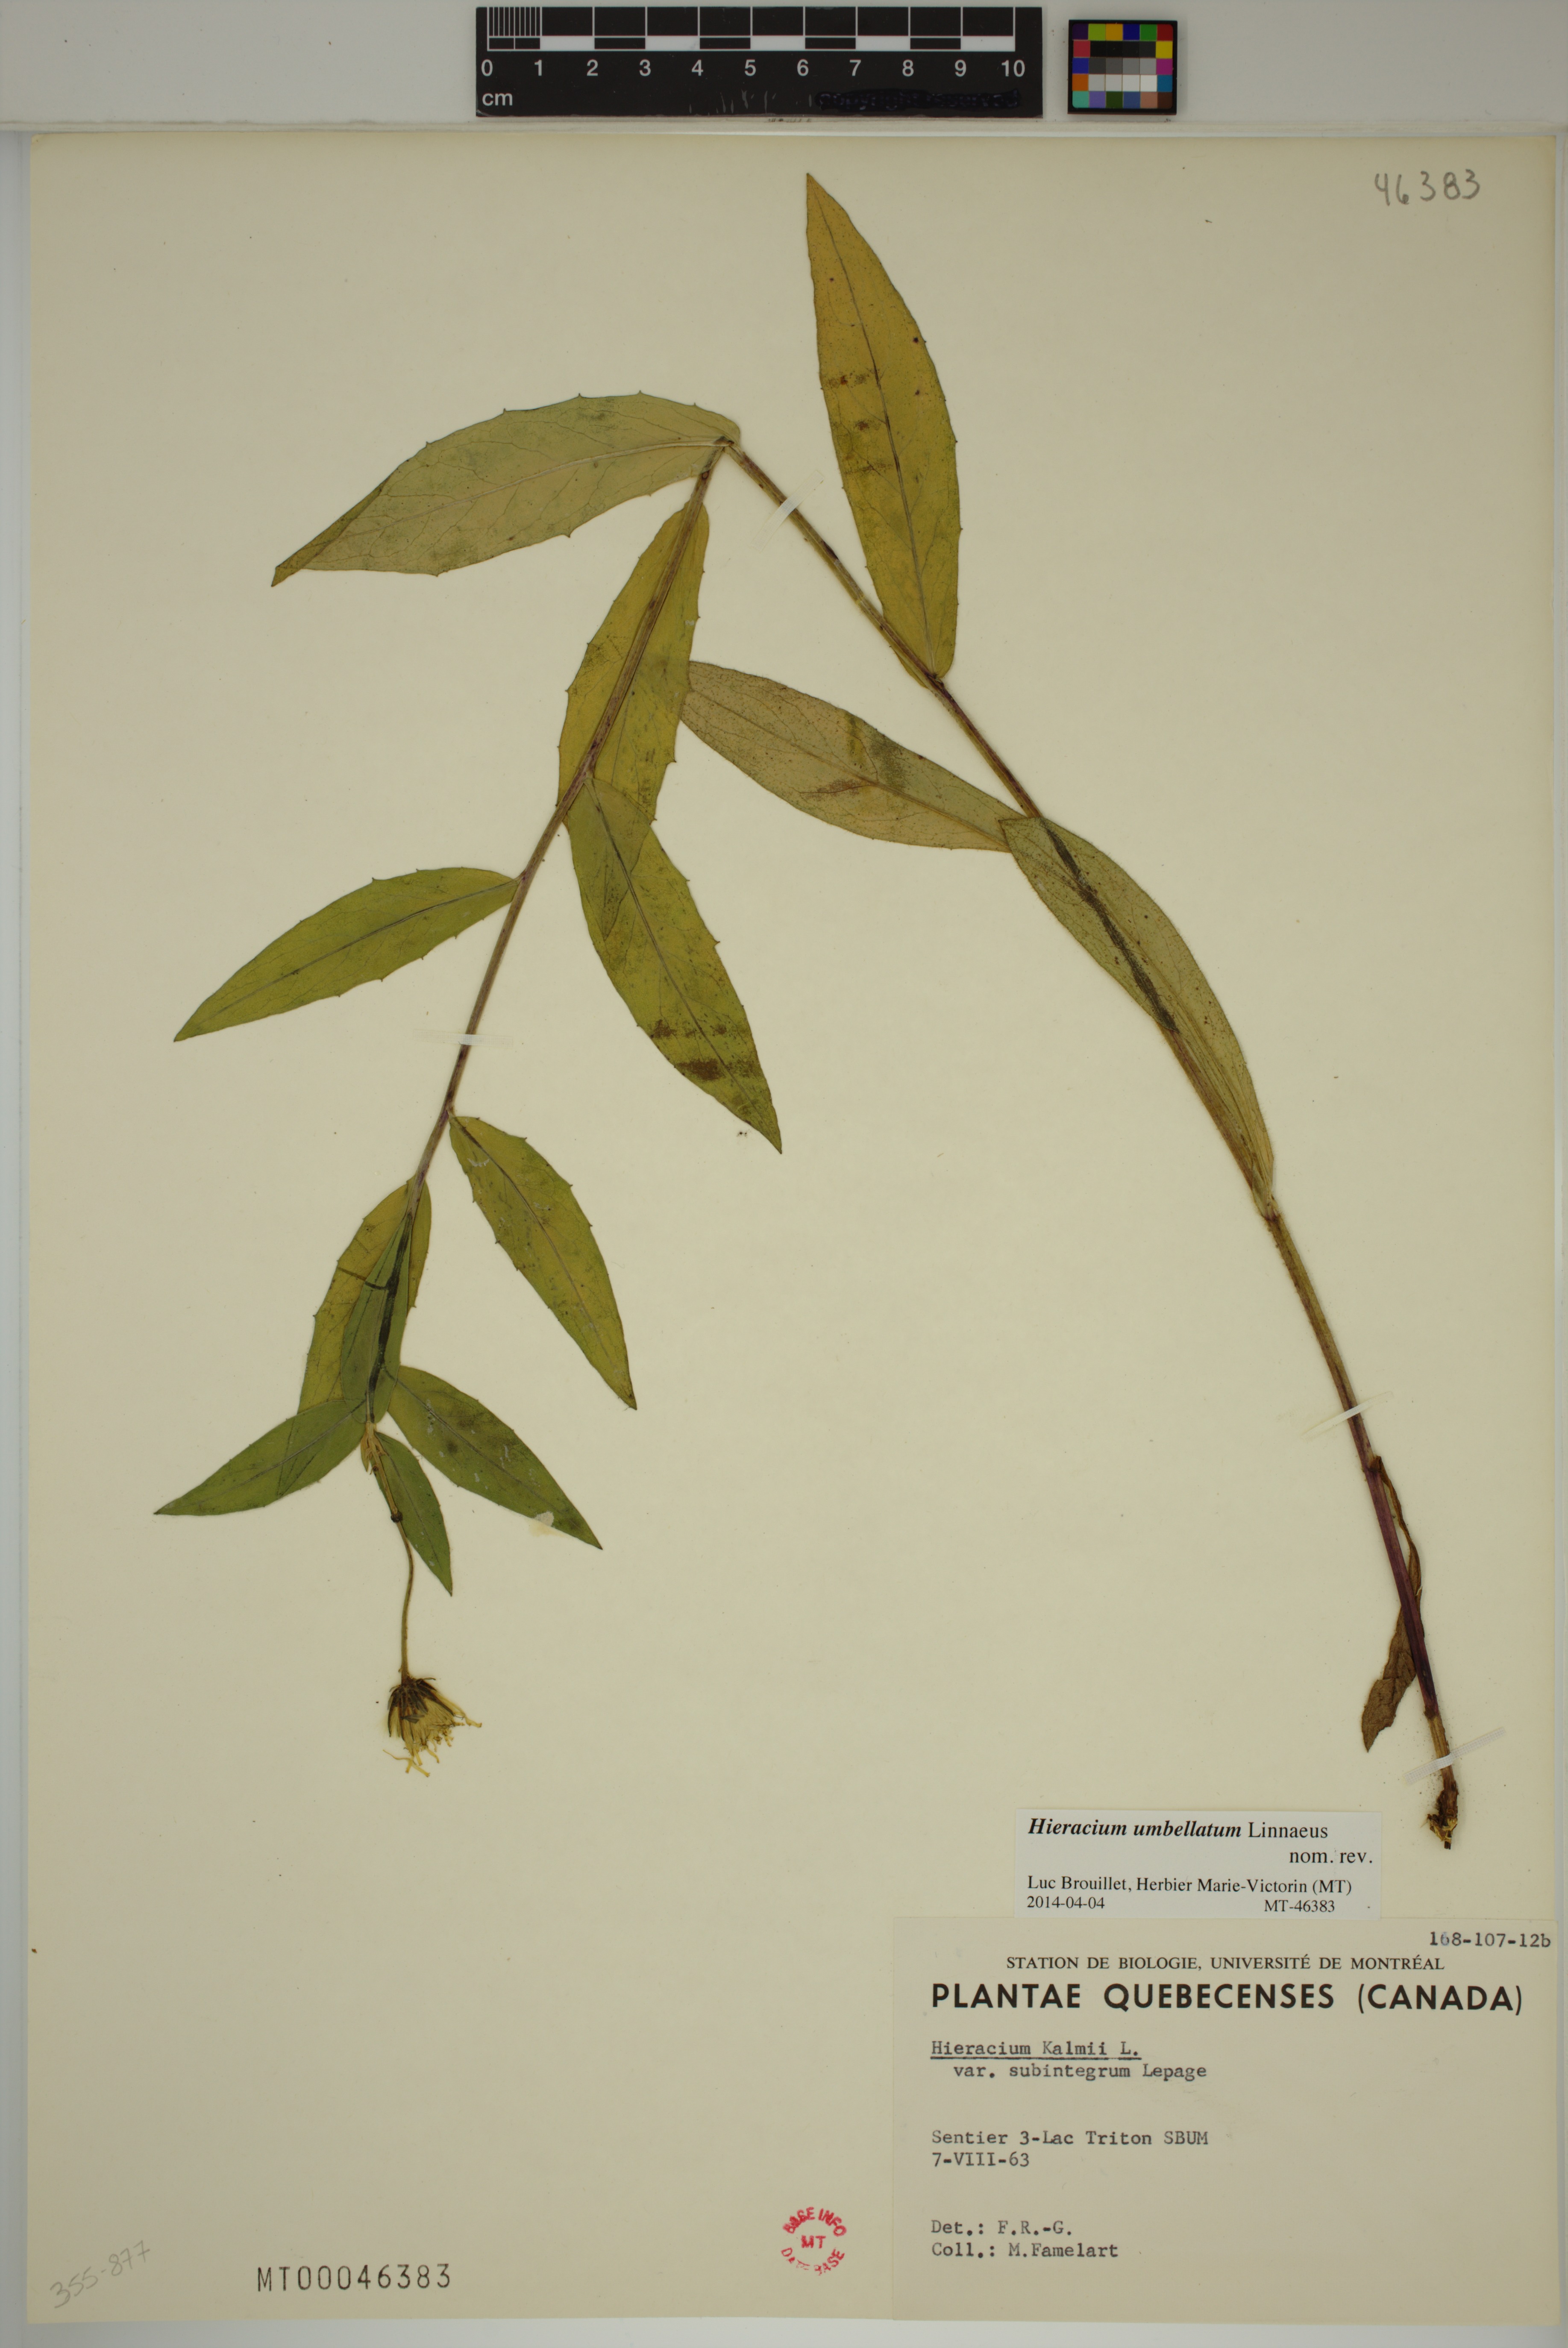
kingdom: Plantae
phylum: Tracheophyta
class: Magnoliopsida
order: Asterales
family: Asteraceae
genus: Hieracium
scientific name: Hieracium umbellatum
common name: Northern hawkweed
